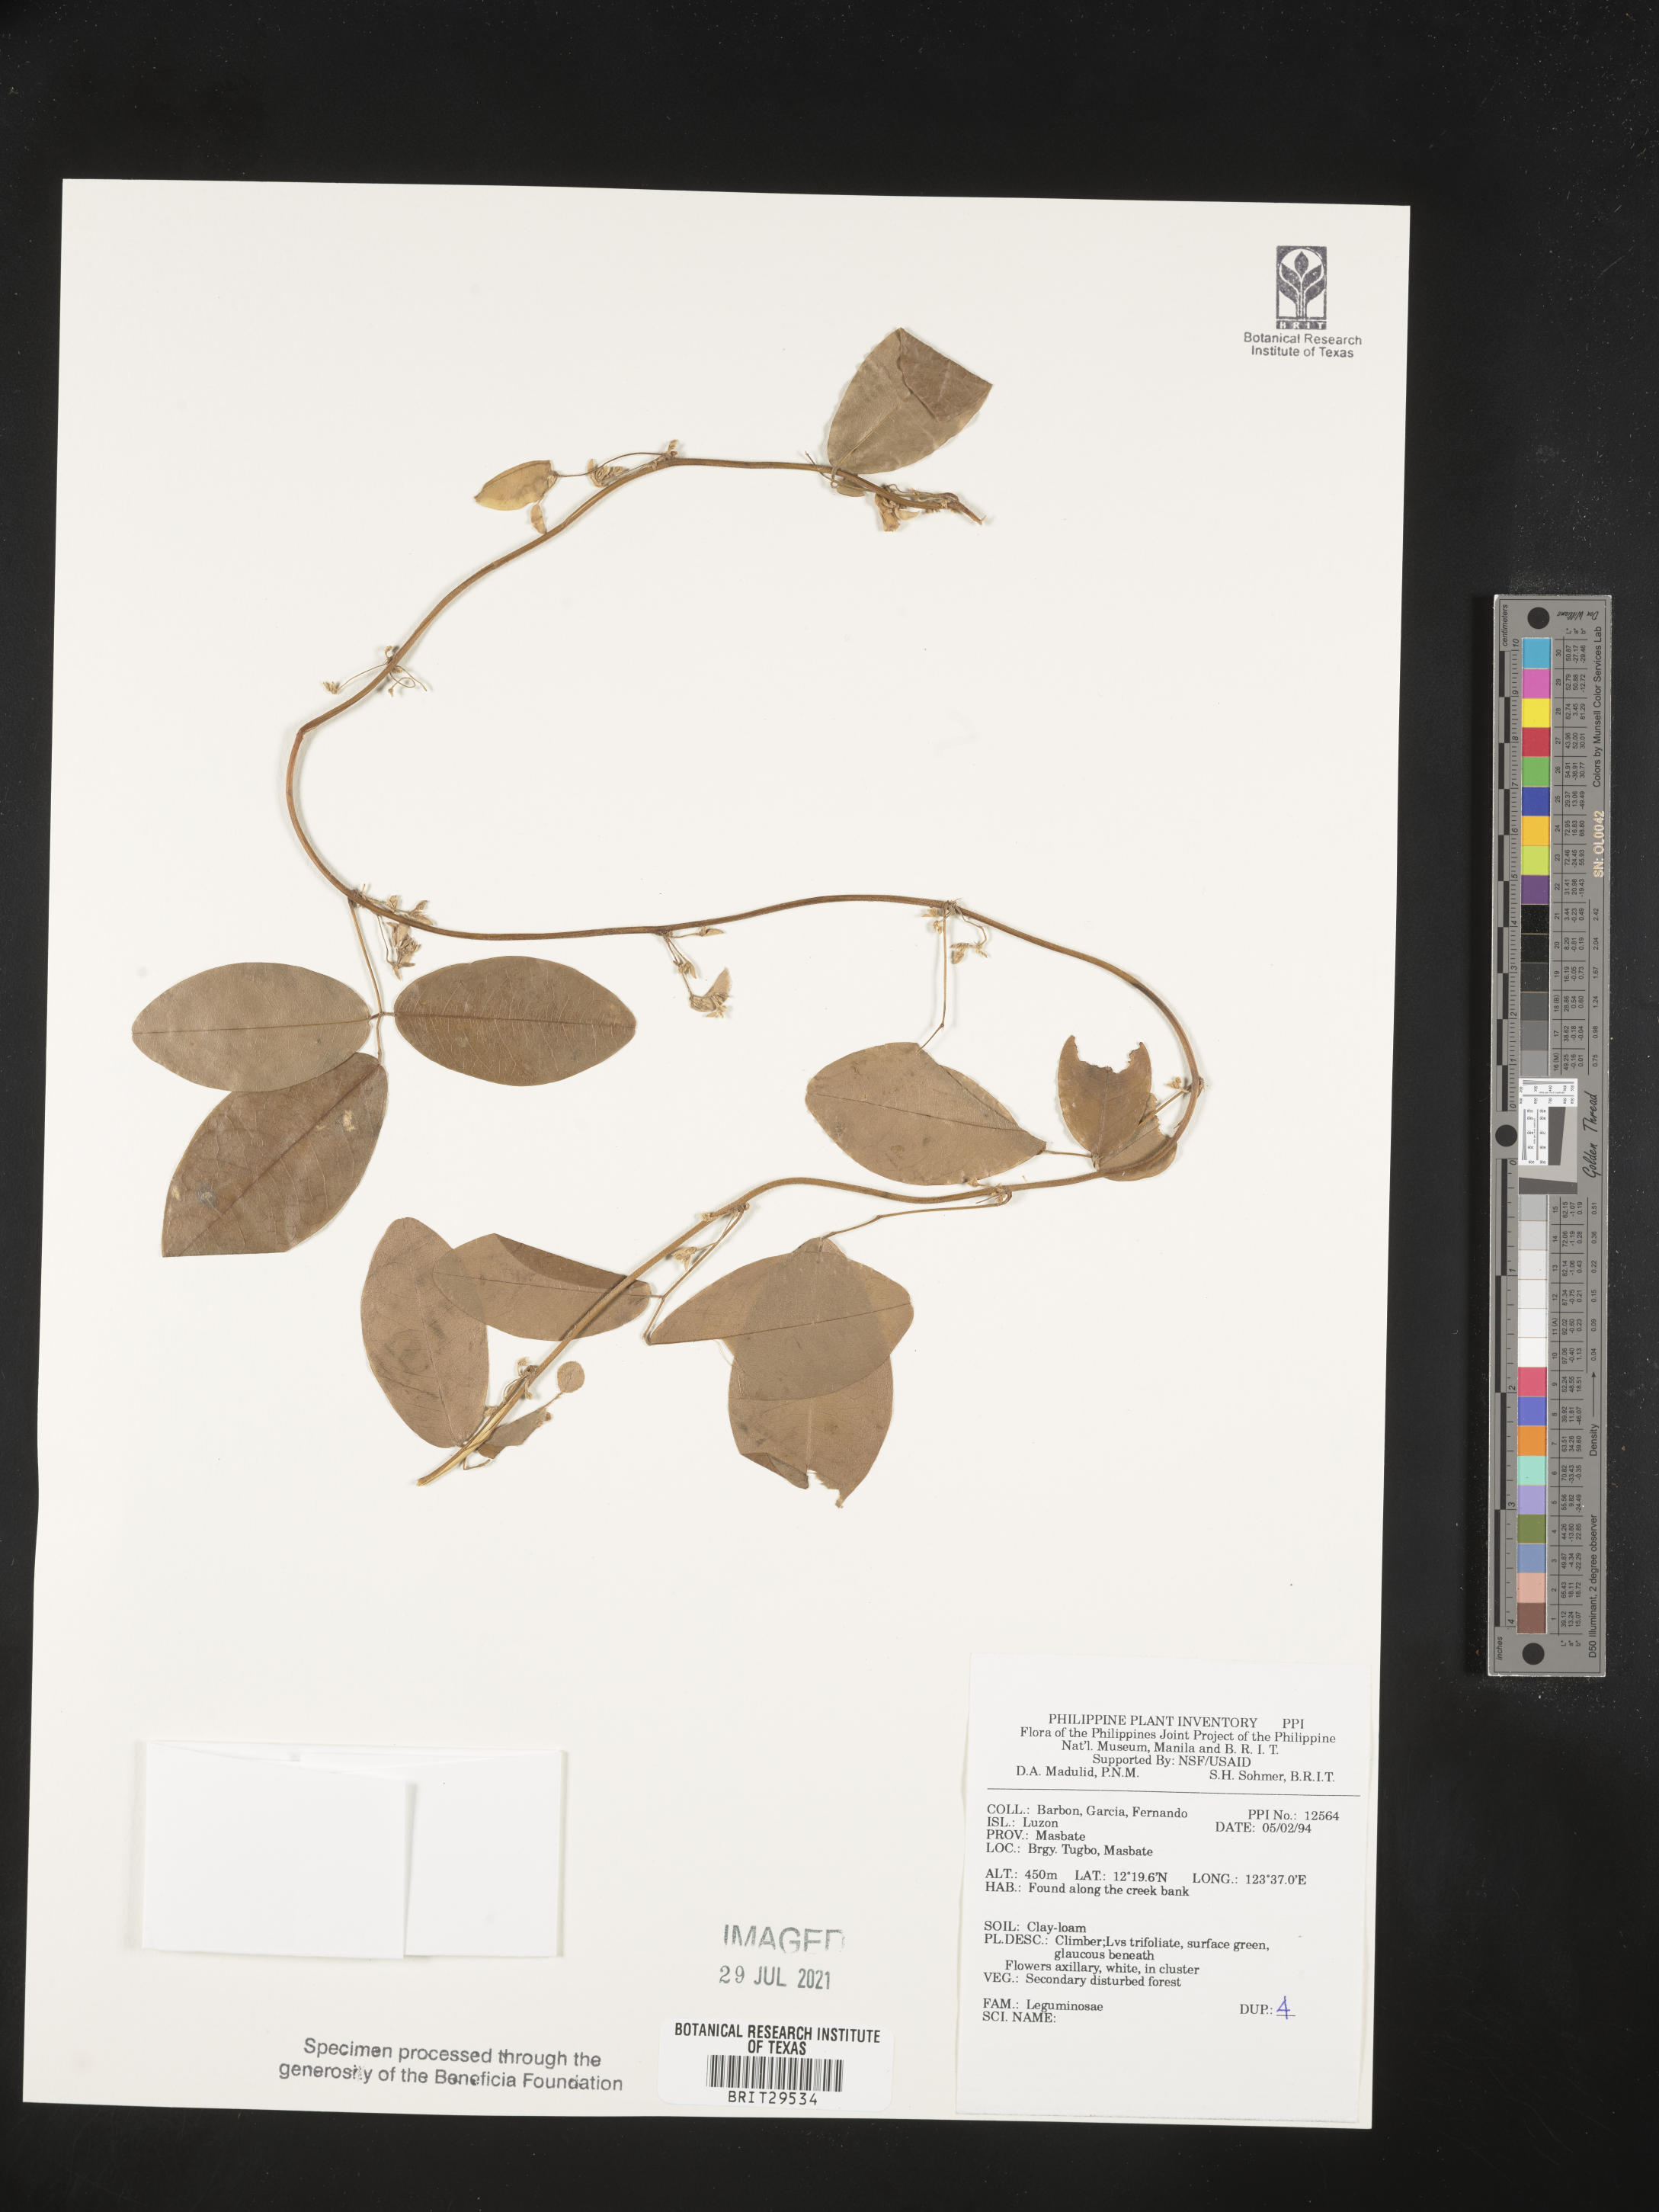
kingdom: Plantae
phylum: Tracheophyta
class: Magnoliopsida
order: Fabales
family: Fabaceae
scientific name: Fabaceae
